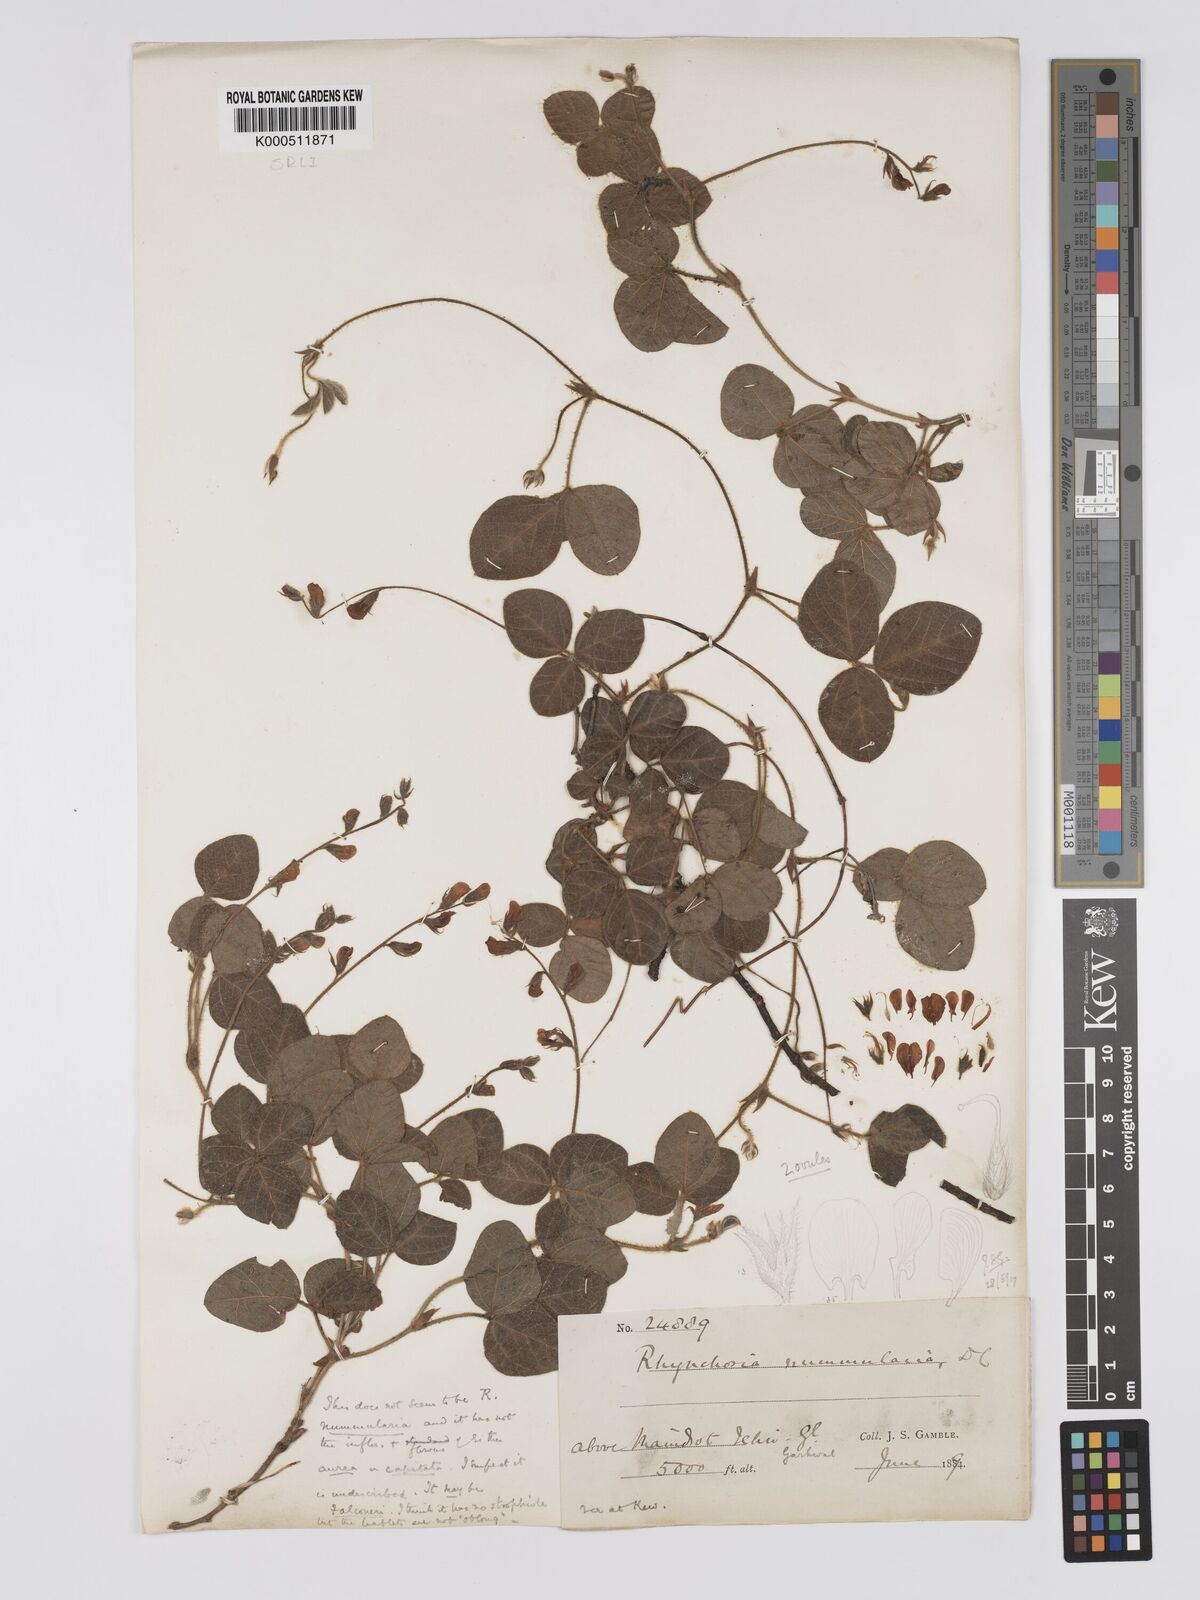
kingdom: Plantae
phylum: Tracheophyta
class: Magnoliopsida
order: Fabales
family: Fabaceae
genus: Rhynchosia
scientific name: Rhynchosia falconeri
